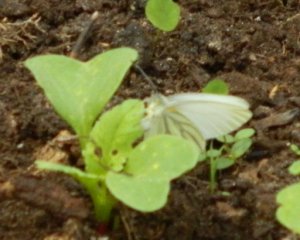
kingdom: Animalia
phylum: Arthropoda
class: Insecta
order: Lepidoptera
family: Pieridae
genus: Pieris
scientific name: Pieris oleracea
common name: Mustard White
